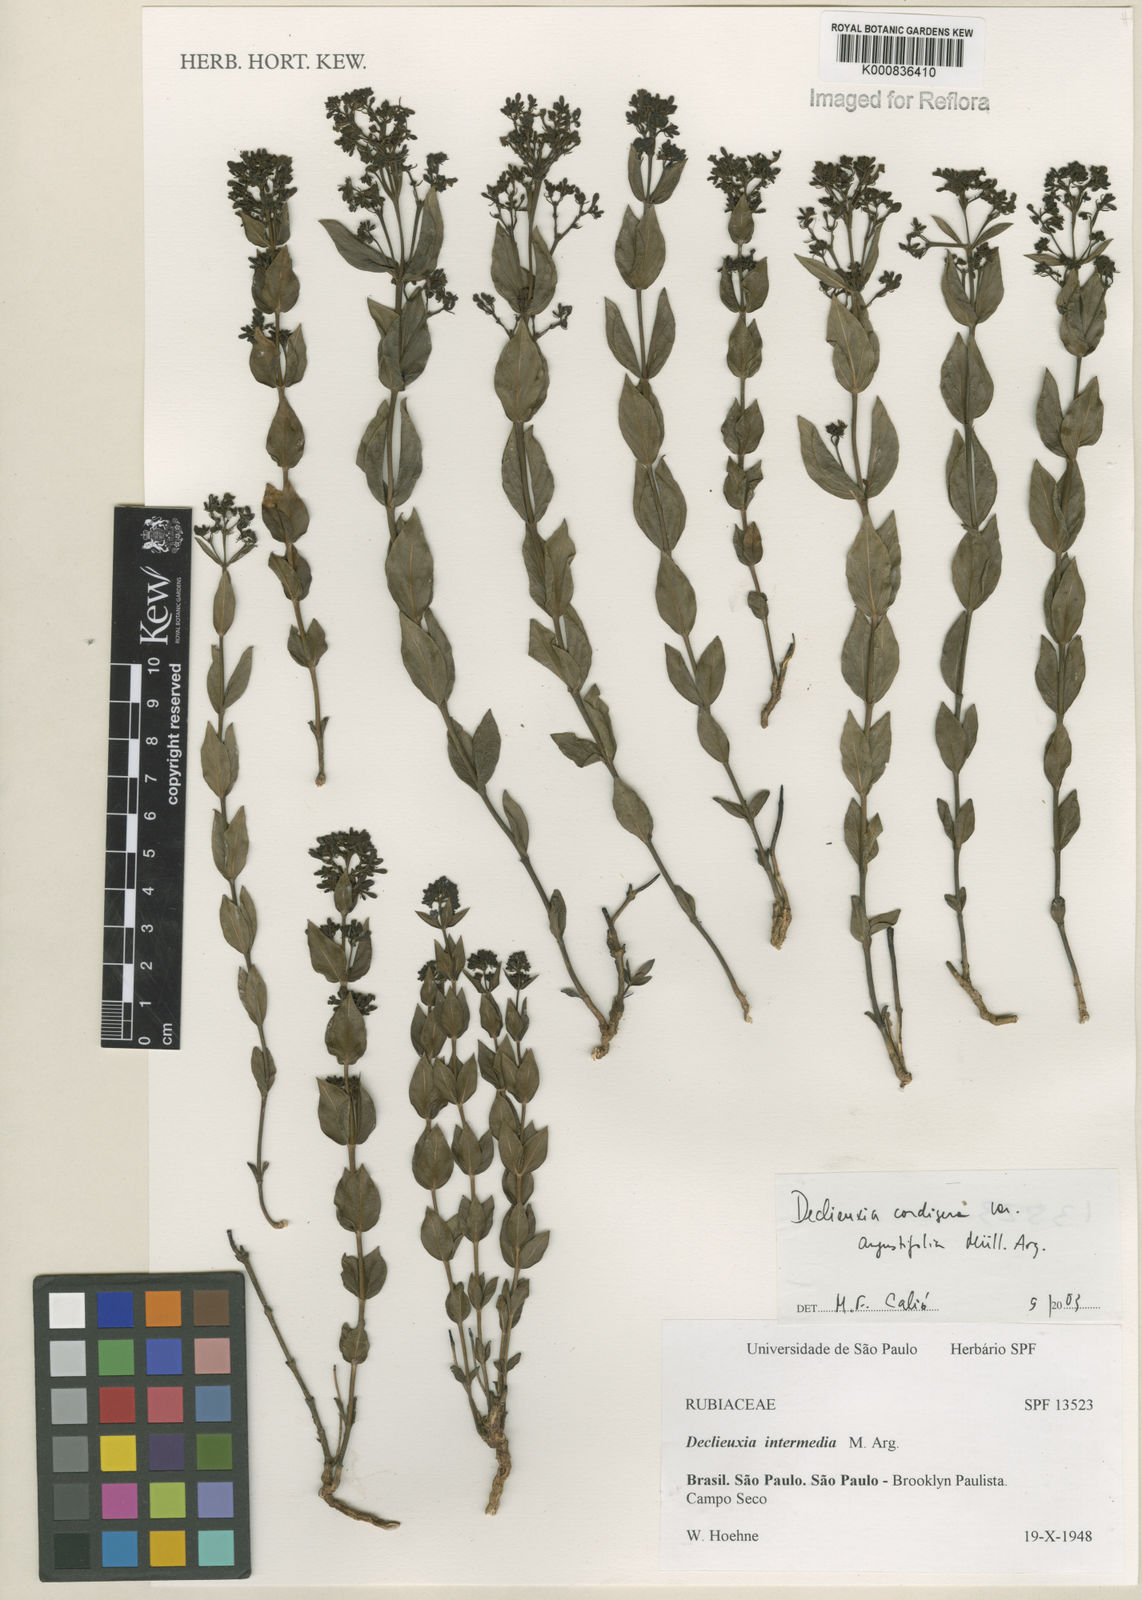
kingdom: Plantae
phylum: Tracheophyta
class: Magnoliopsida
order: Gentianales
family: Rubiaceae
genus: Declieuxia
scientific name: Declieuxia
